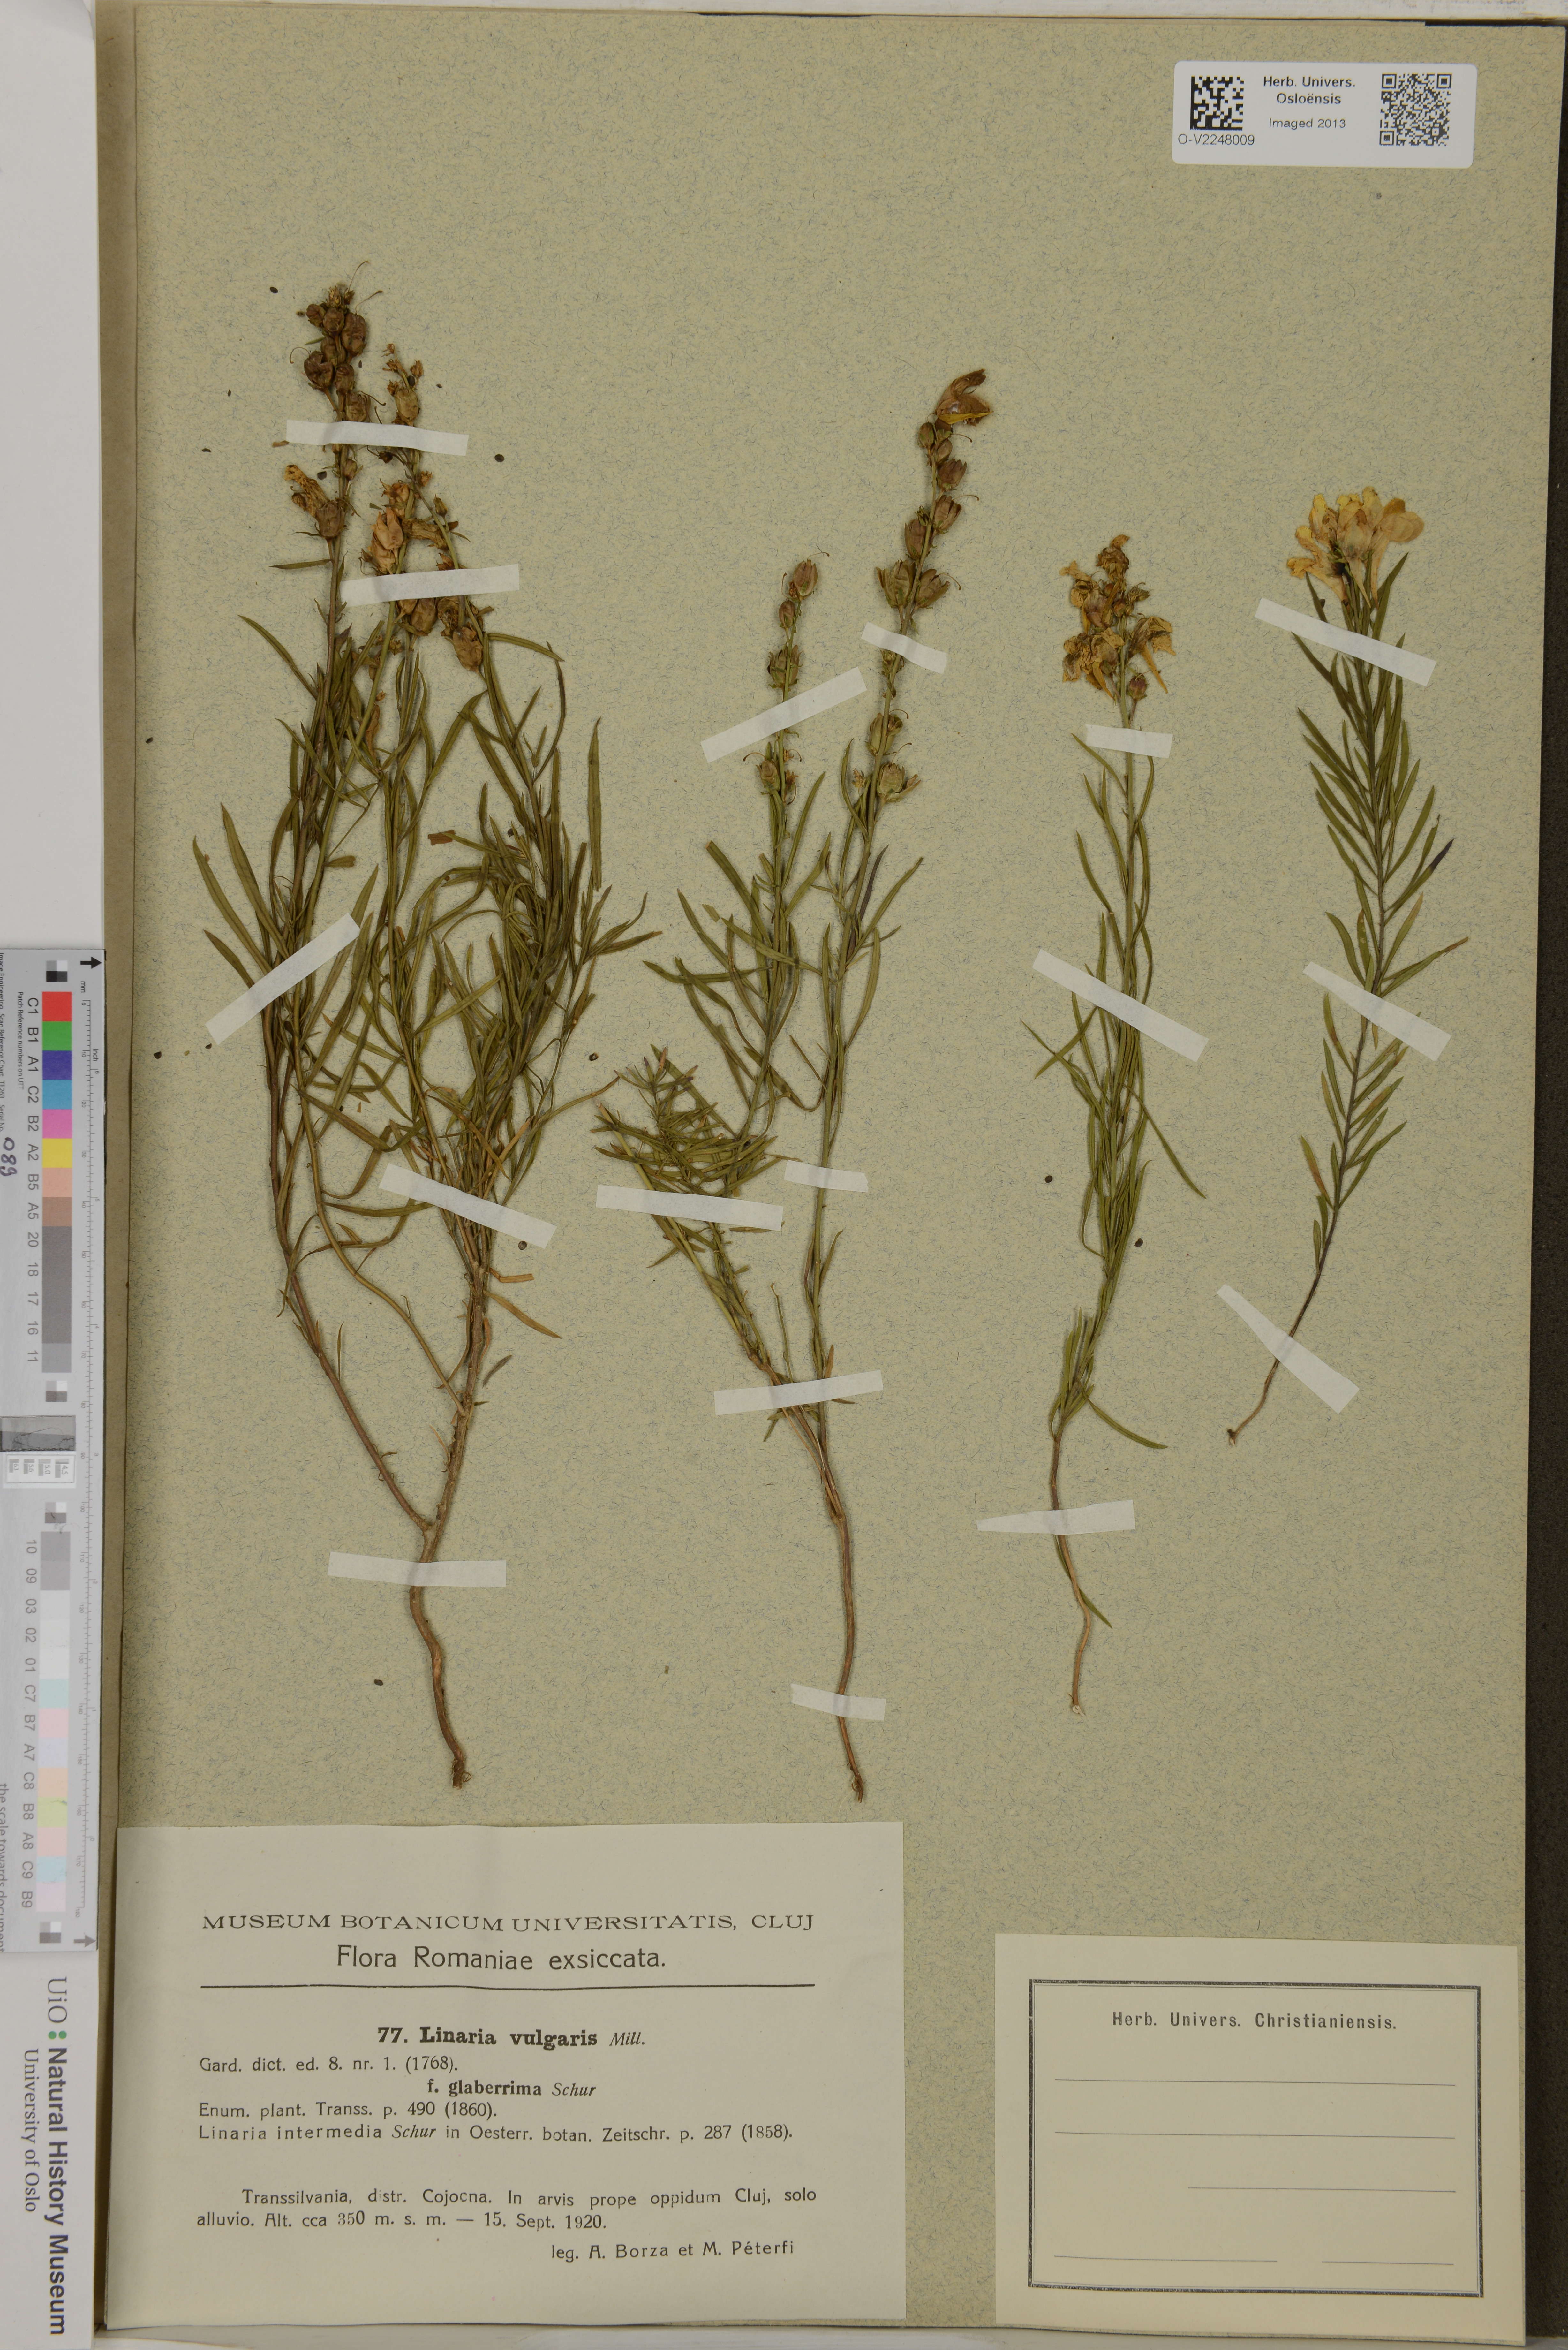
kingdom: Plantae
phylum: Tracheophyta
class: Magnoliopsida
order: Lamiales
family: Plantaginaceae
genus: Linaria
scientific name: Linaria vulgaris
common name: Butter and eggs
